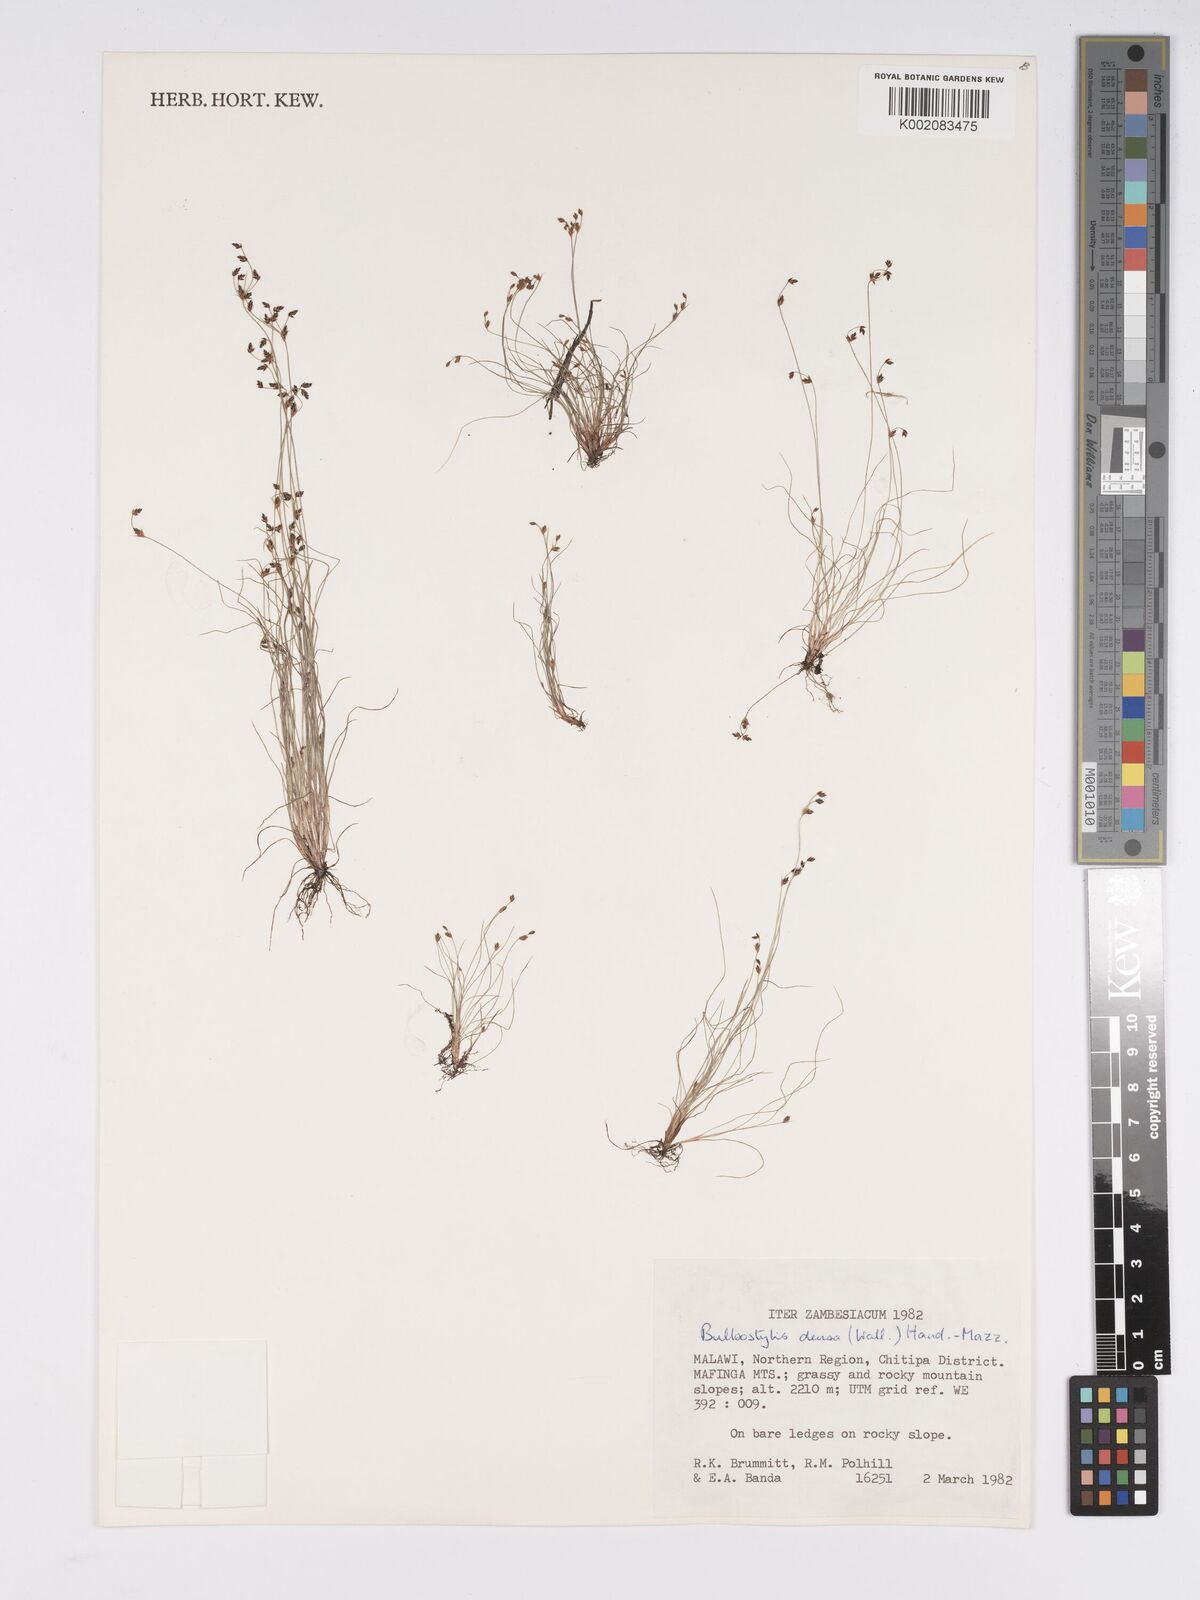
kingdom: Plantae
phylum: Tracheophyta
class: Liliopsida
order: Poales
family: Cyperaceae
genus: Bulbostylis
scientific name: Bulbostylis densa
